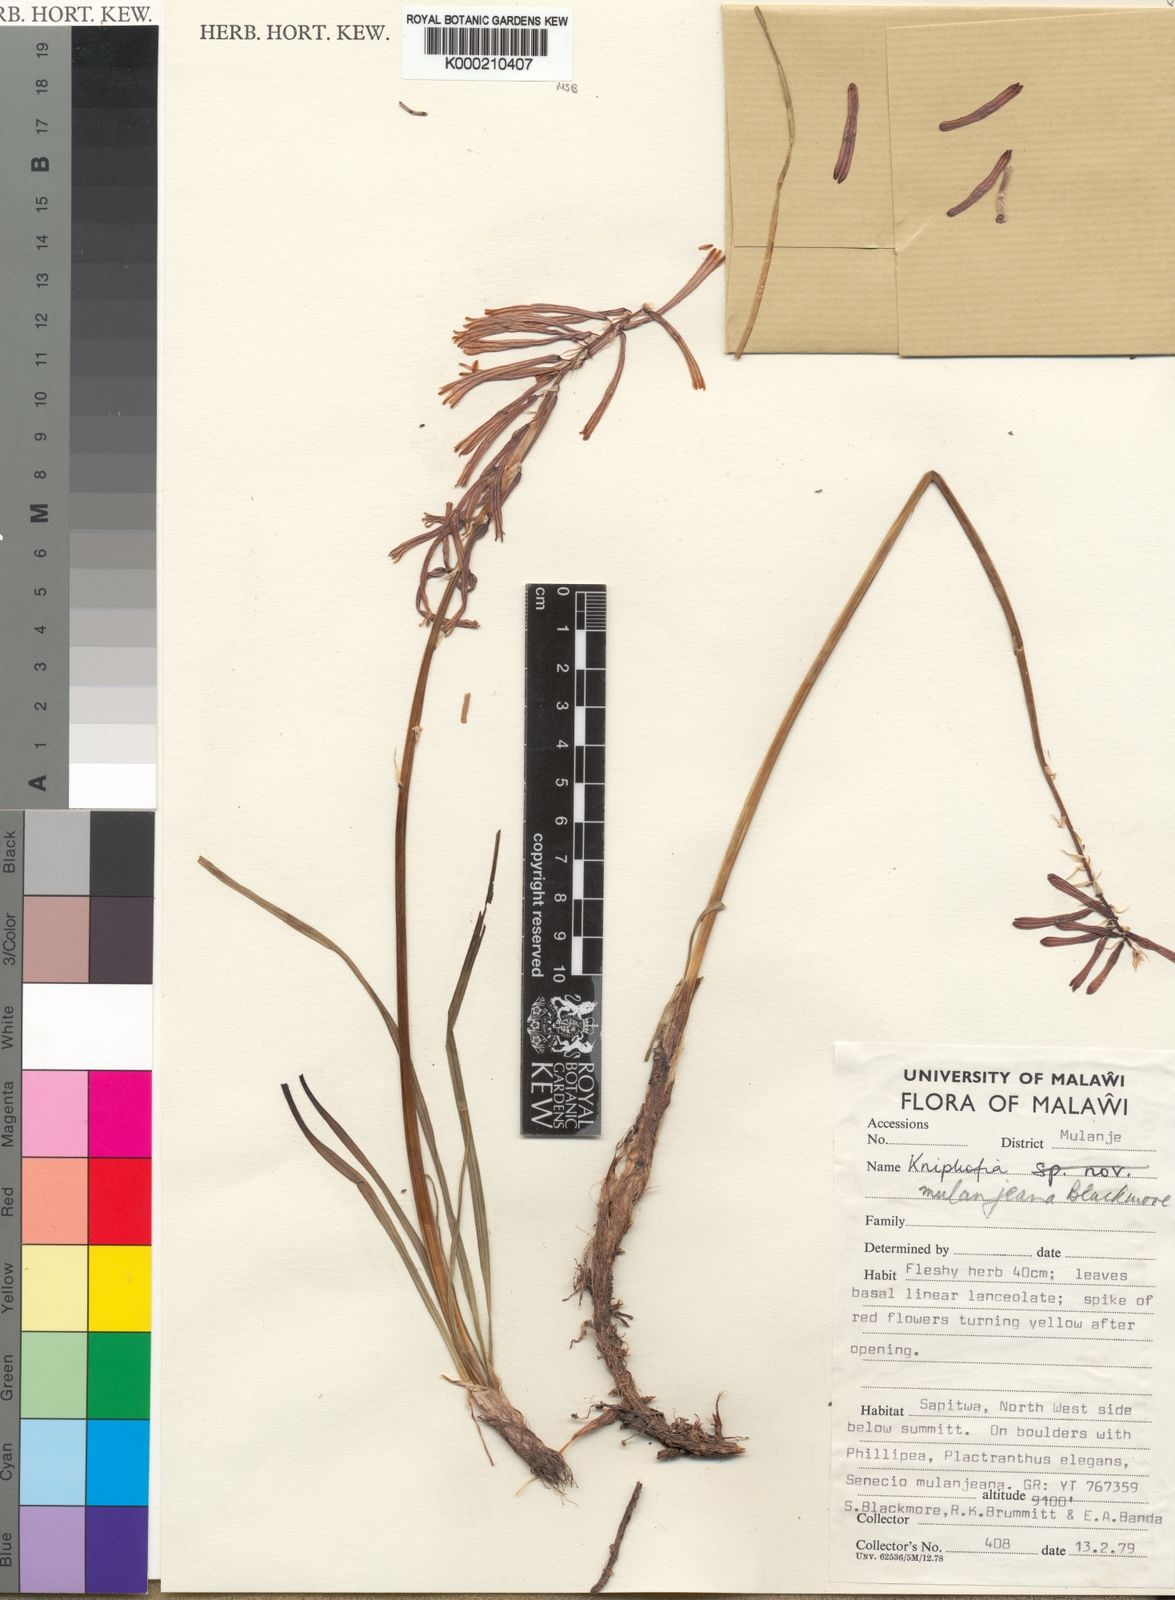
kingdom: Plantae
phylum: Tracheophyta
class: Liliopsida
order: Asparagales
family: Asphodelaceae
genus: Kniphofia
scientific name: Kniphofia mulanjeana
